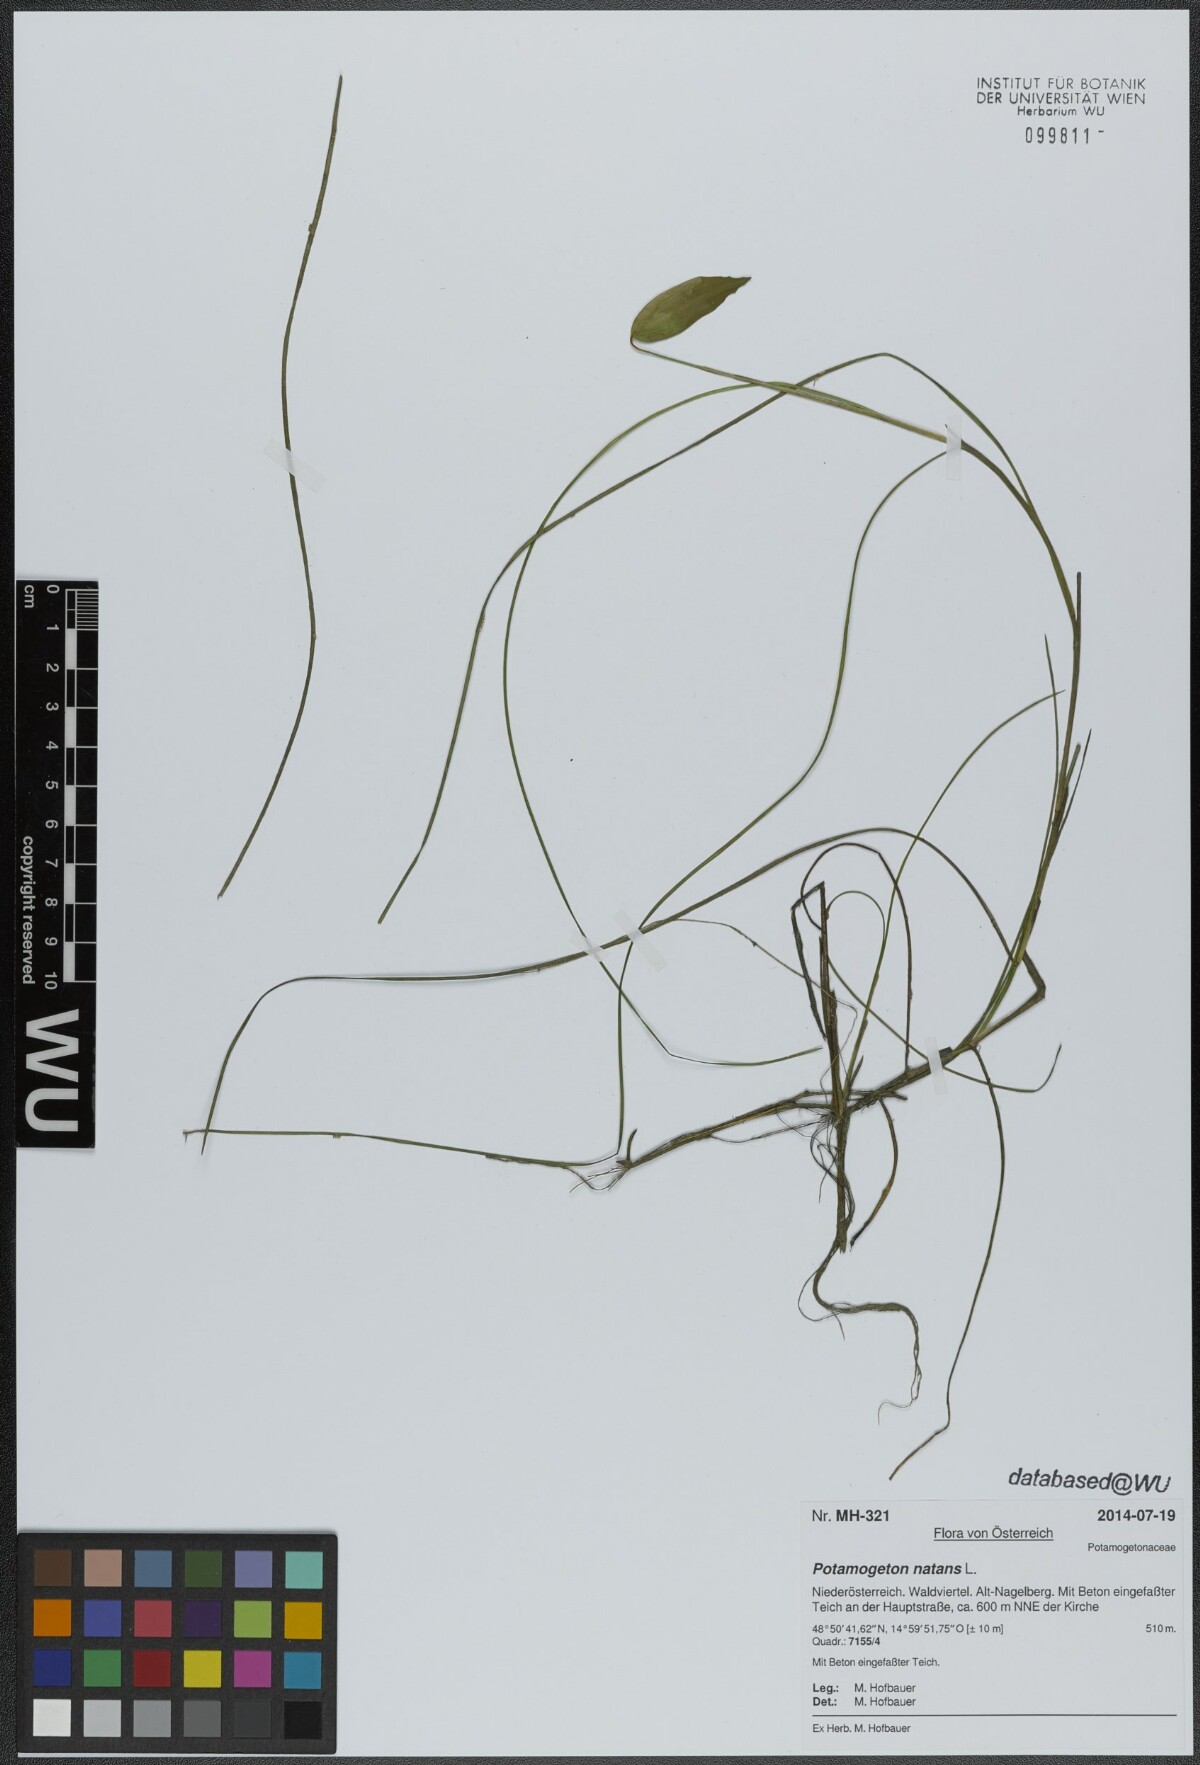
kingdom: Plantae
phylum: Tracheophyta
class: Liliopsida
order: Alismatales
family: Potamogetonaceae
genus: Potamogeton
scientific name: Potamogeton natans
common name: Broad-leaved pondweed
